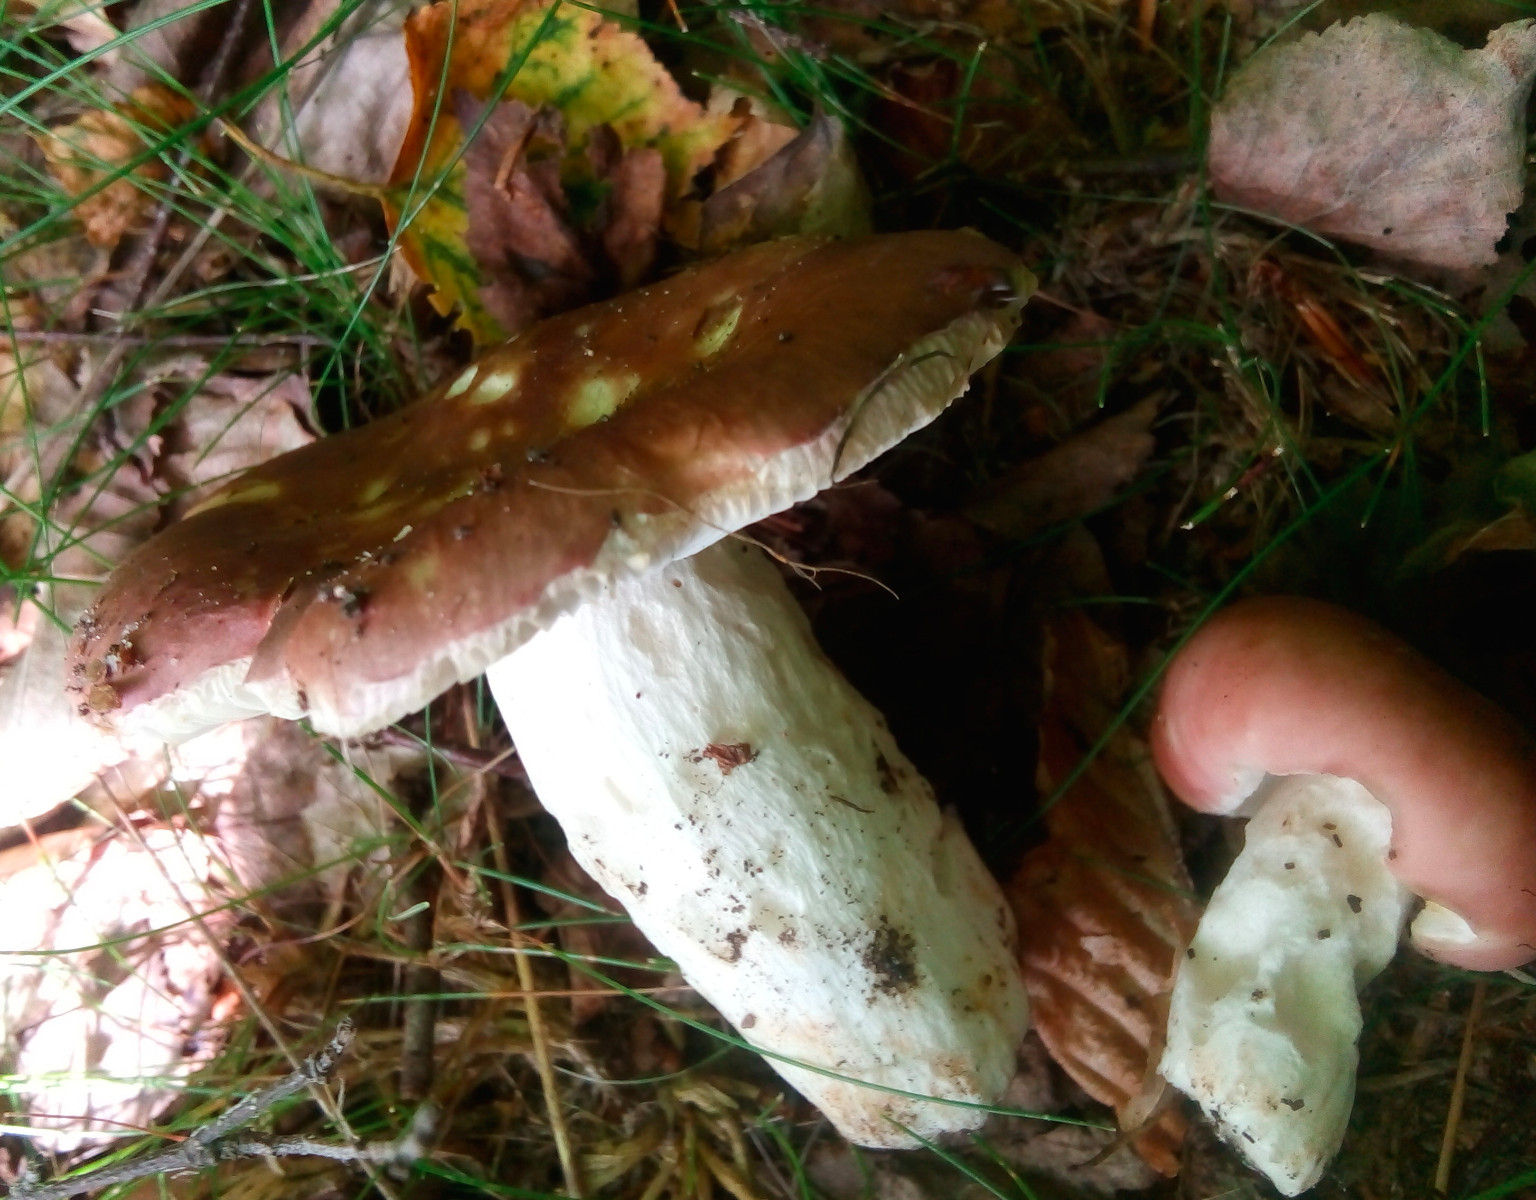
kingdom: Fungi
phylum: Basidiomycota
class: Agaricomycetes
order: Russulales
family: Russulaceae
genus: Russula
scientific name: Russula vesca
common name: spiselig skørhat
